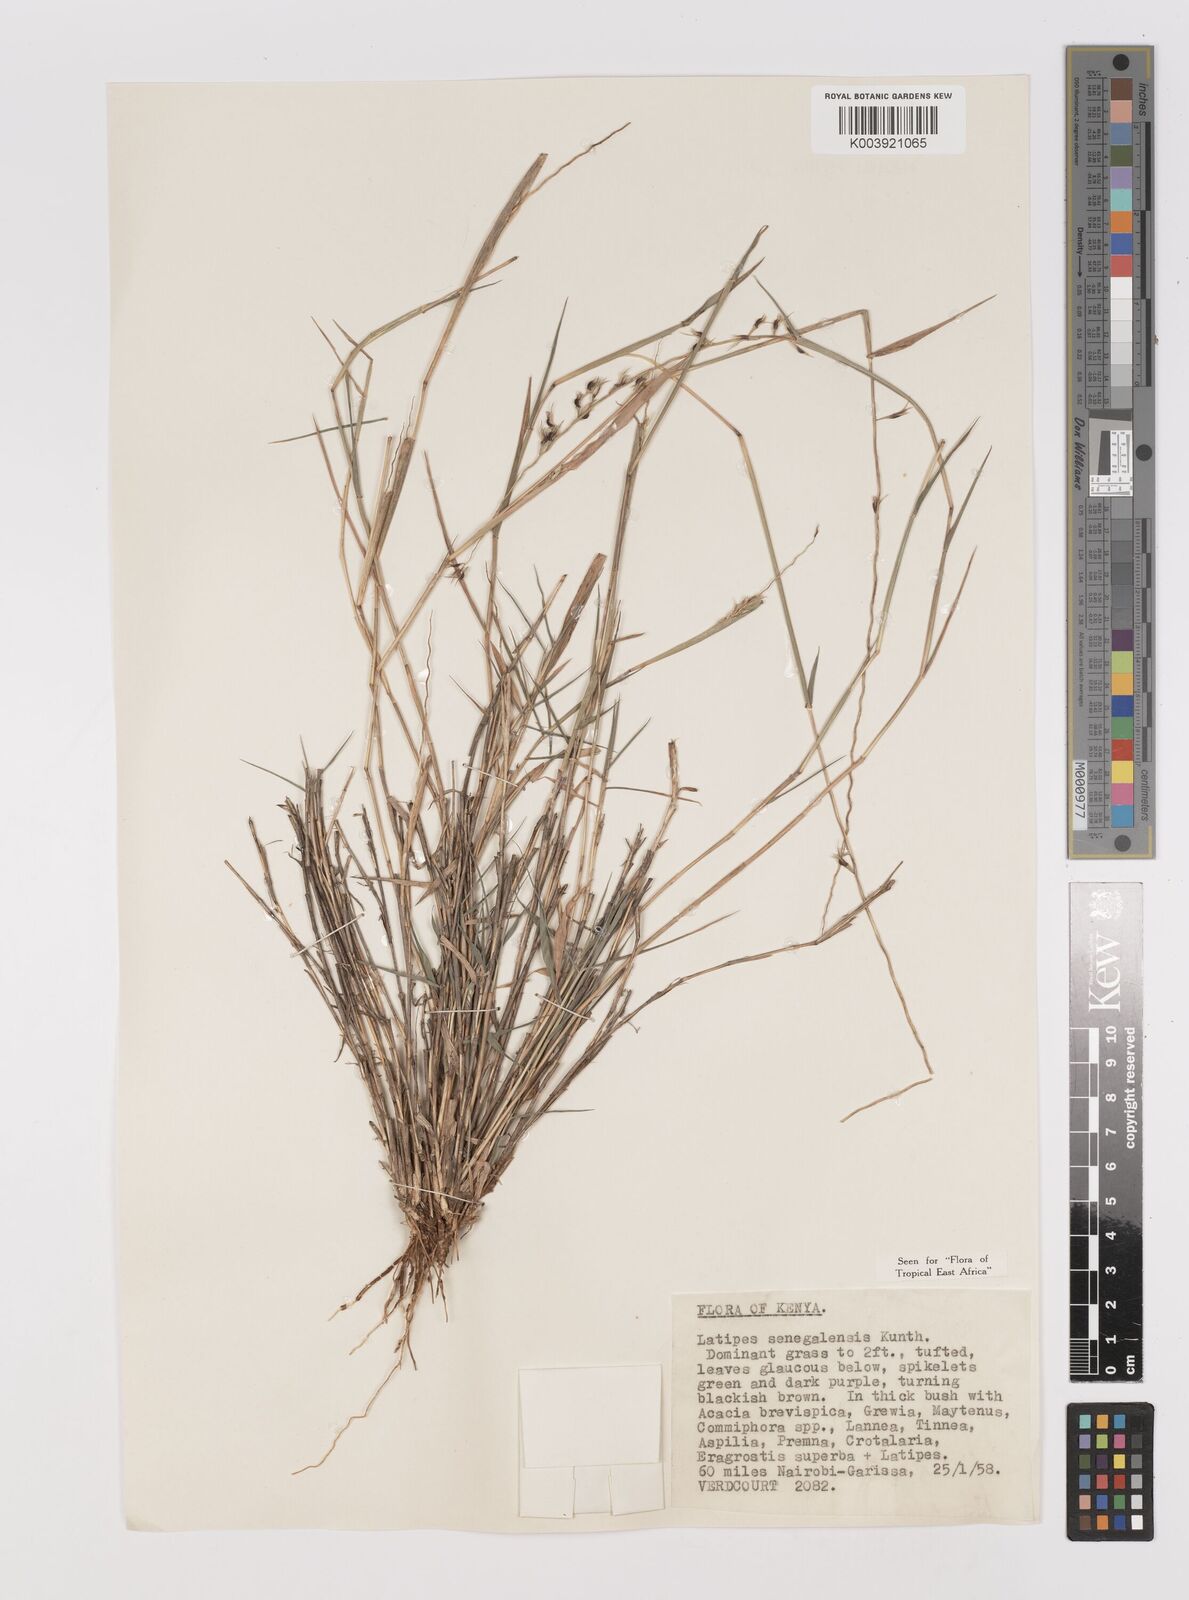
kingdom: Plantae
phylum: Tracheophyta
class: Liliopsida
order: Poales
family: Poaceae
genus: Leptothrium
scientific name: Leptothrium senegalense
